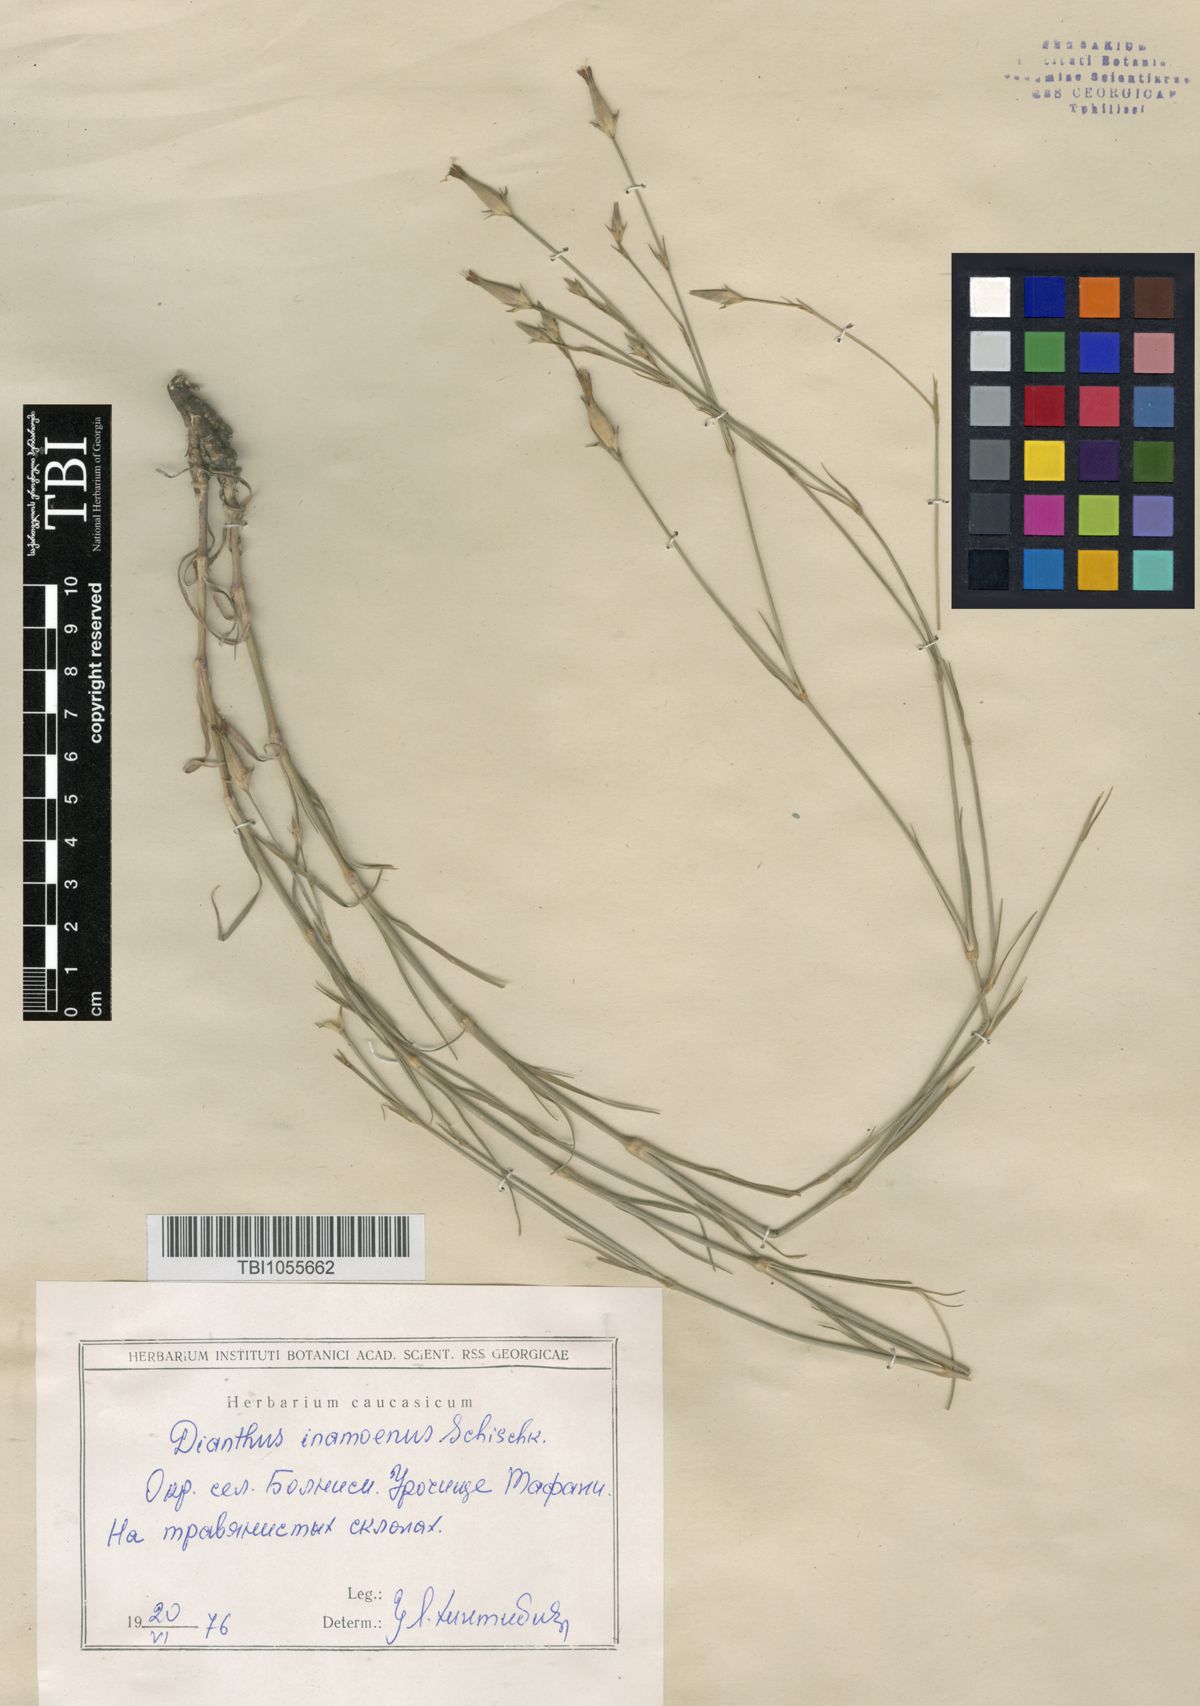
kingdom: Plantae
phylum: Tracheophyta
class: Magnoliopsida
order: Caryophyllales
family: Caryophyllaceae
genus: Dianthus
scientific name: Dianthus inamoenus
